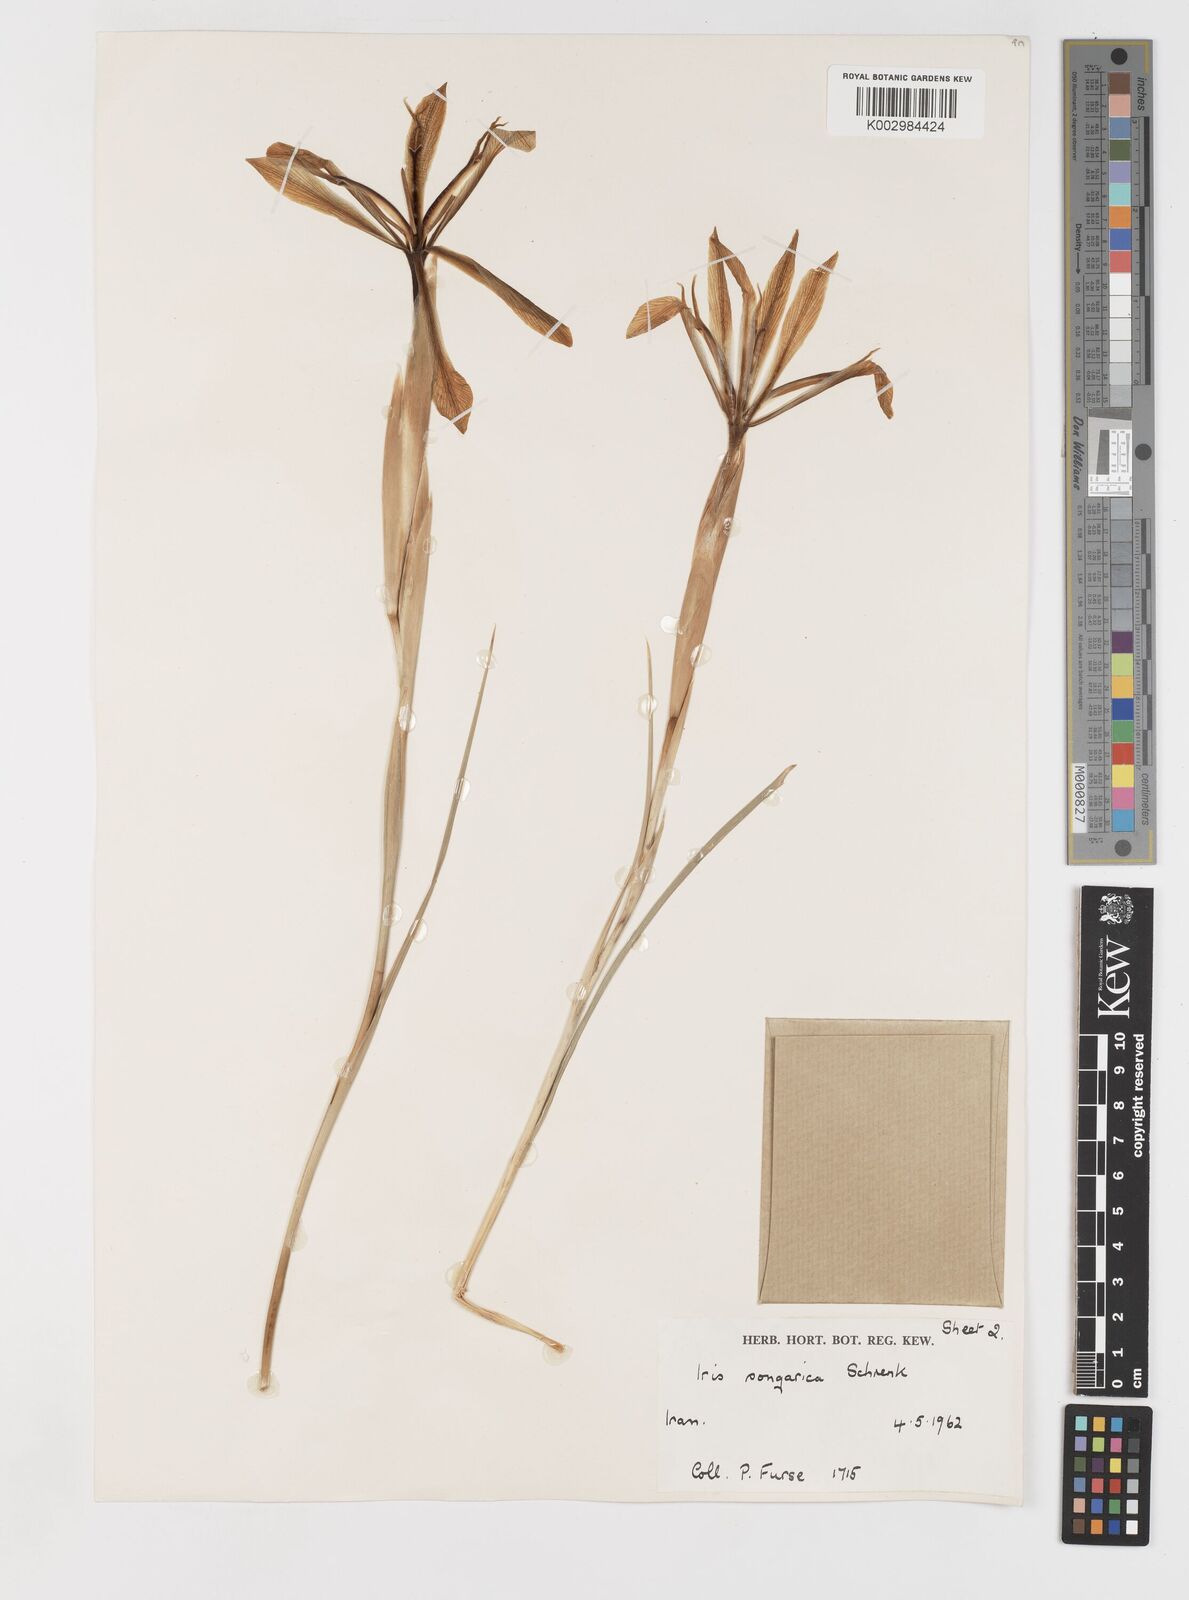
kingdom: Plantae
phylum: Tracheophyta
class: Liliopsida
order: Asparagales
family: Iridaceae
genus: Iris
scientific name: Iris songarica
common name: Songar iris
